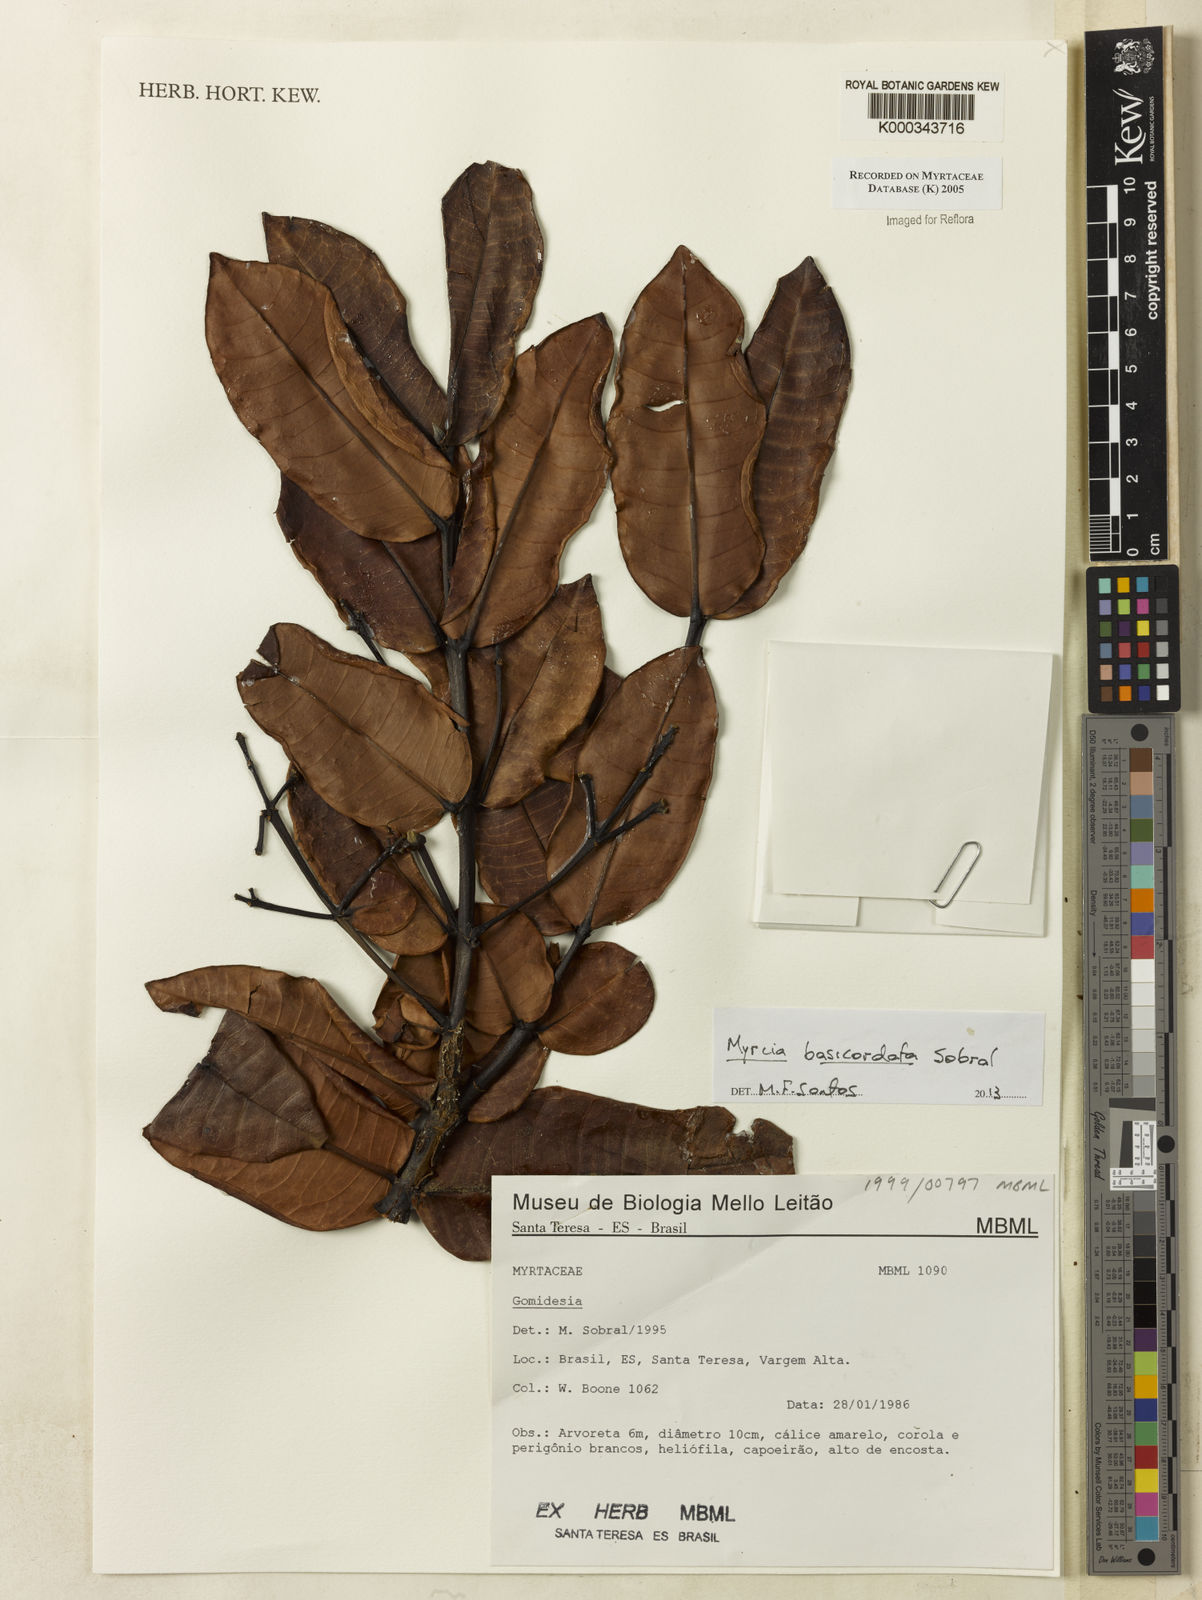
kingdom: Plantae
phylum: Tracheophyta
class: Magnoliopsida
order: Myrtales
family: Myrtaceae
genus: Myrcia
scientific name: Myrcia amplexicaulis
